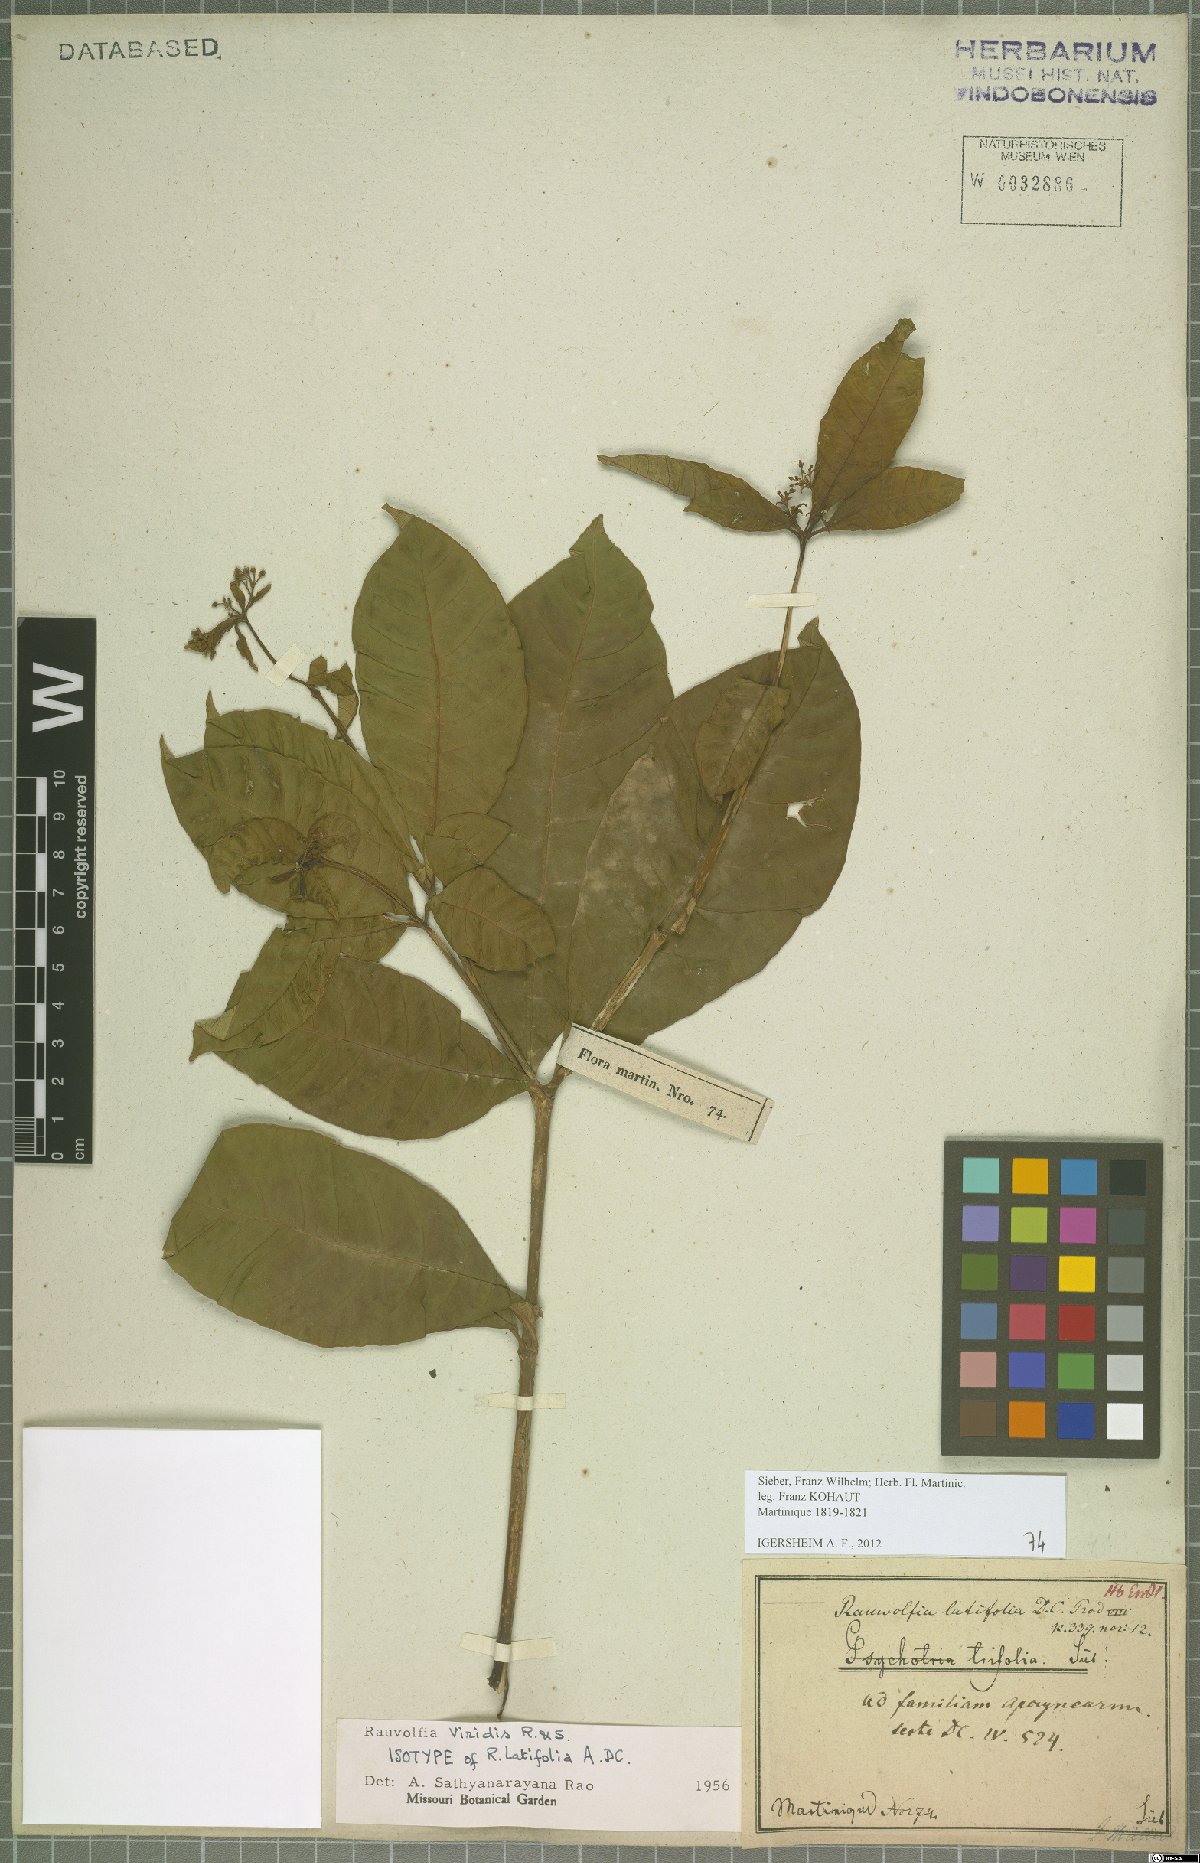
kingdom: Plantae
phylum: Tracheophyta
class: Magnoliopsida
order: Gentianales
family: Apocynaceae
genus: Rauvolfia
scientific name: Rauvolfia viridis
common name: Bellyache
